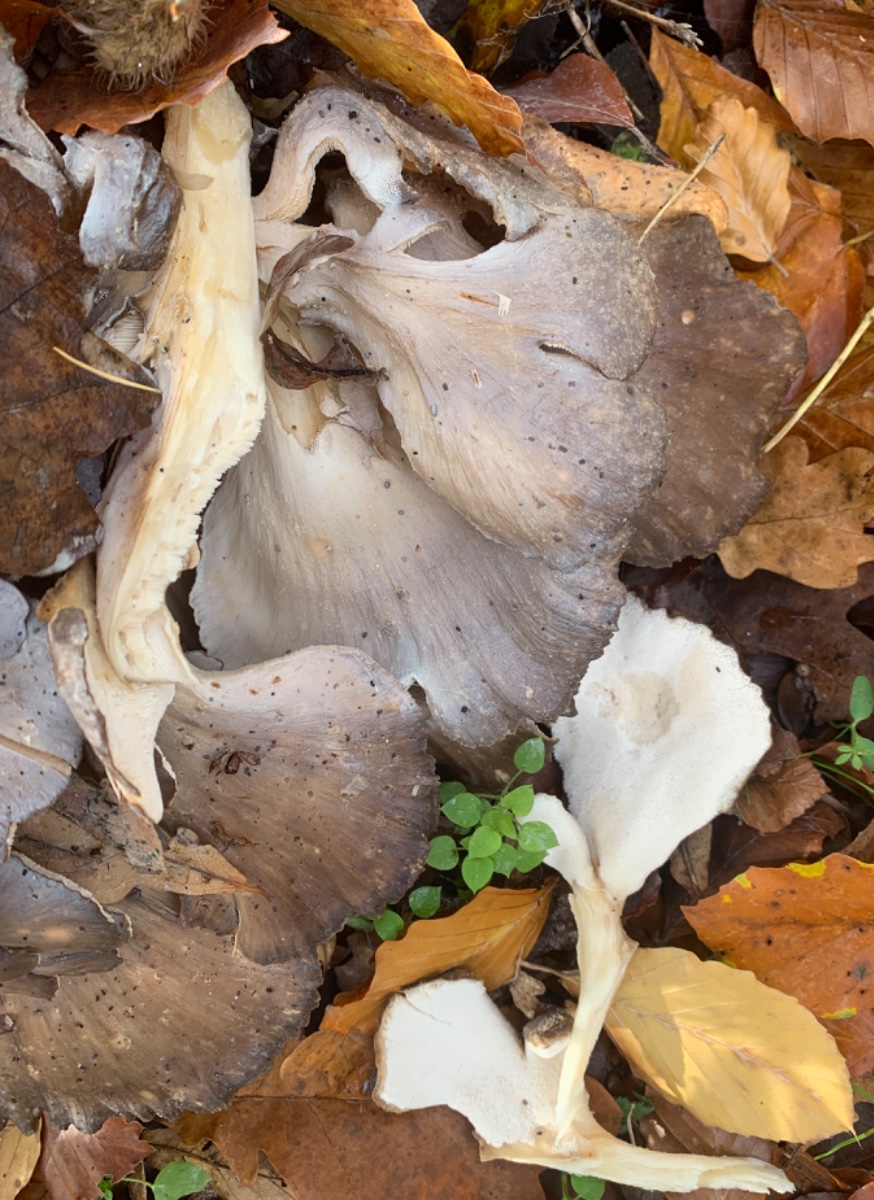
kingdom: Fungi
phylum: Basidiomycota
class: Agaricomycetes
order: Polyporales
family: Meripilaceae
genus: Meripilus
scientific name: Meripilus giganteus
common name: kæmpeporesvamp
